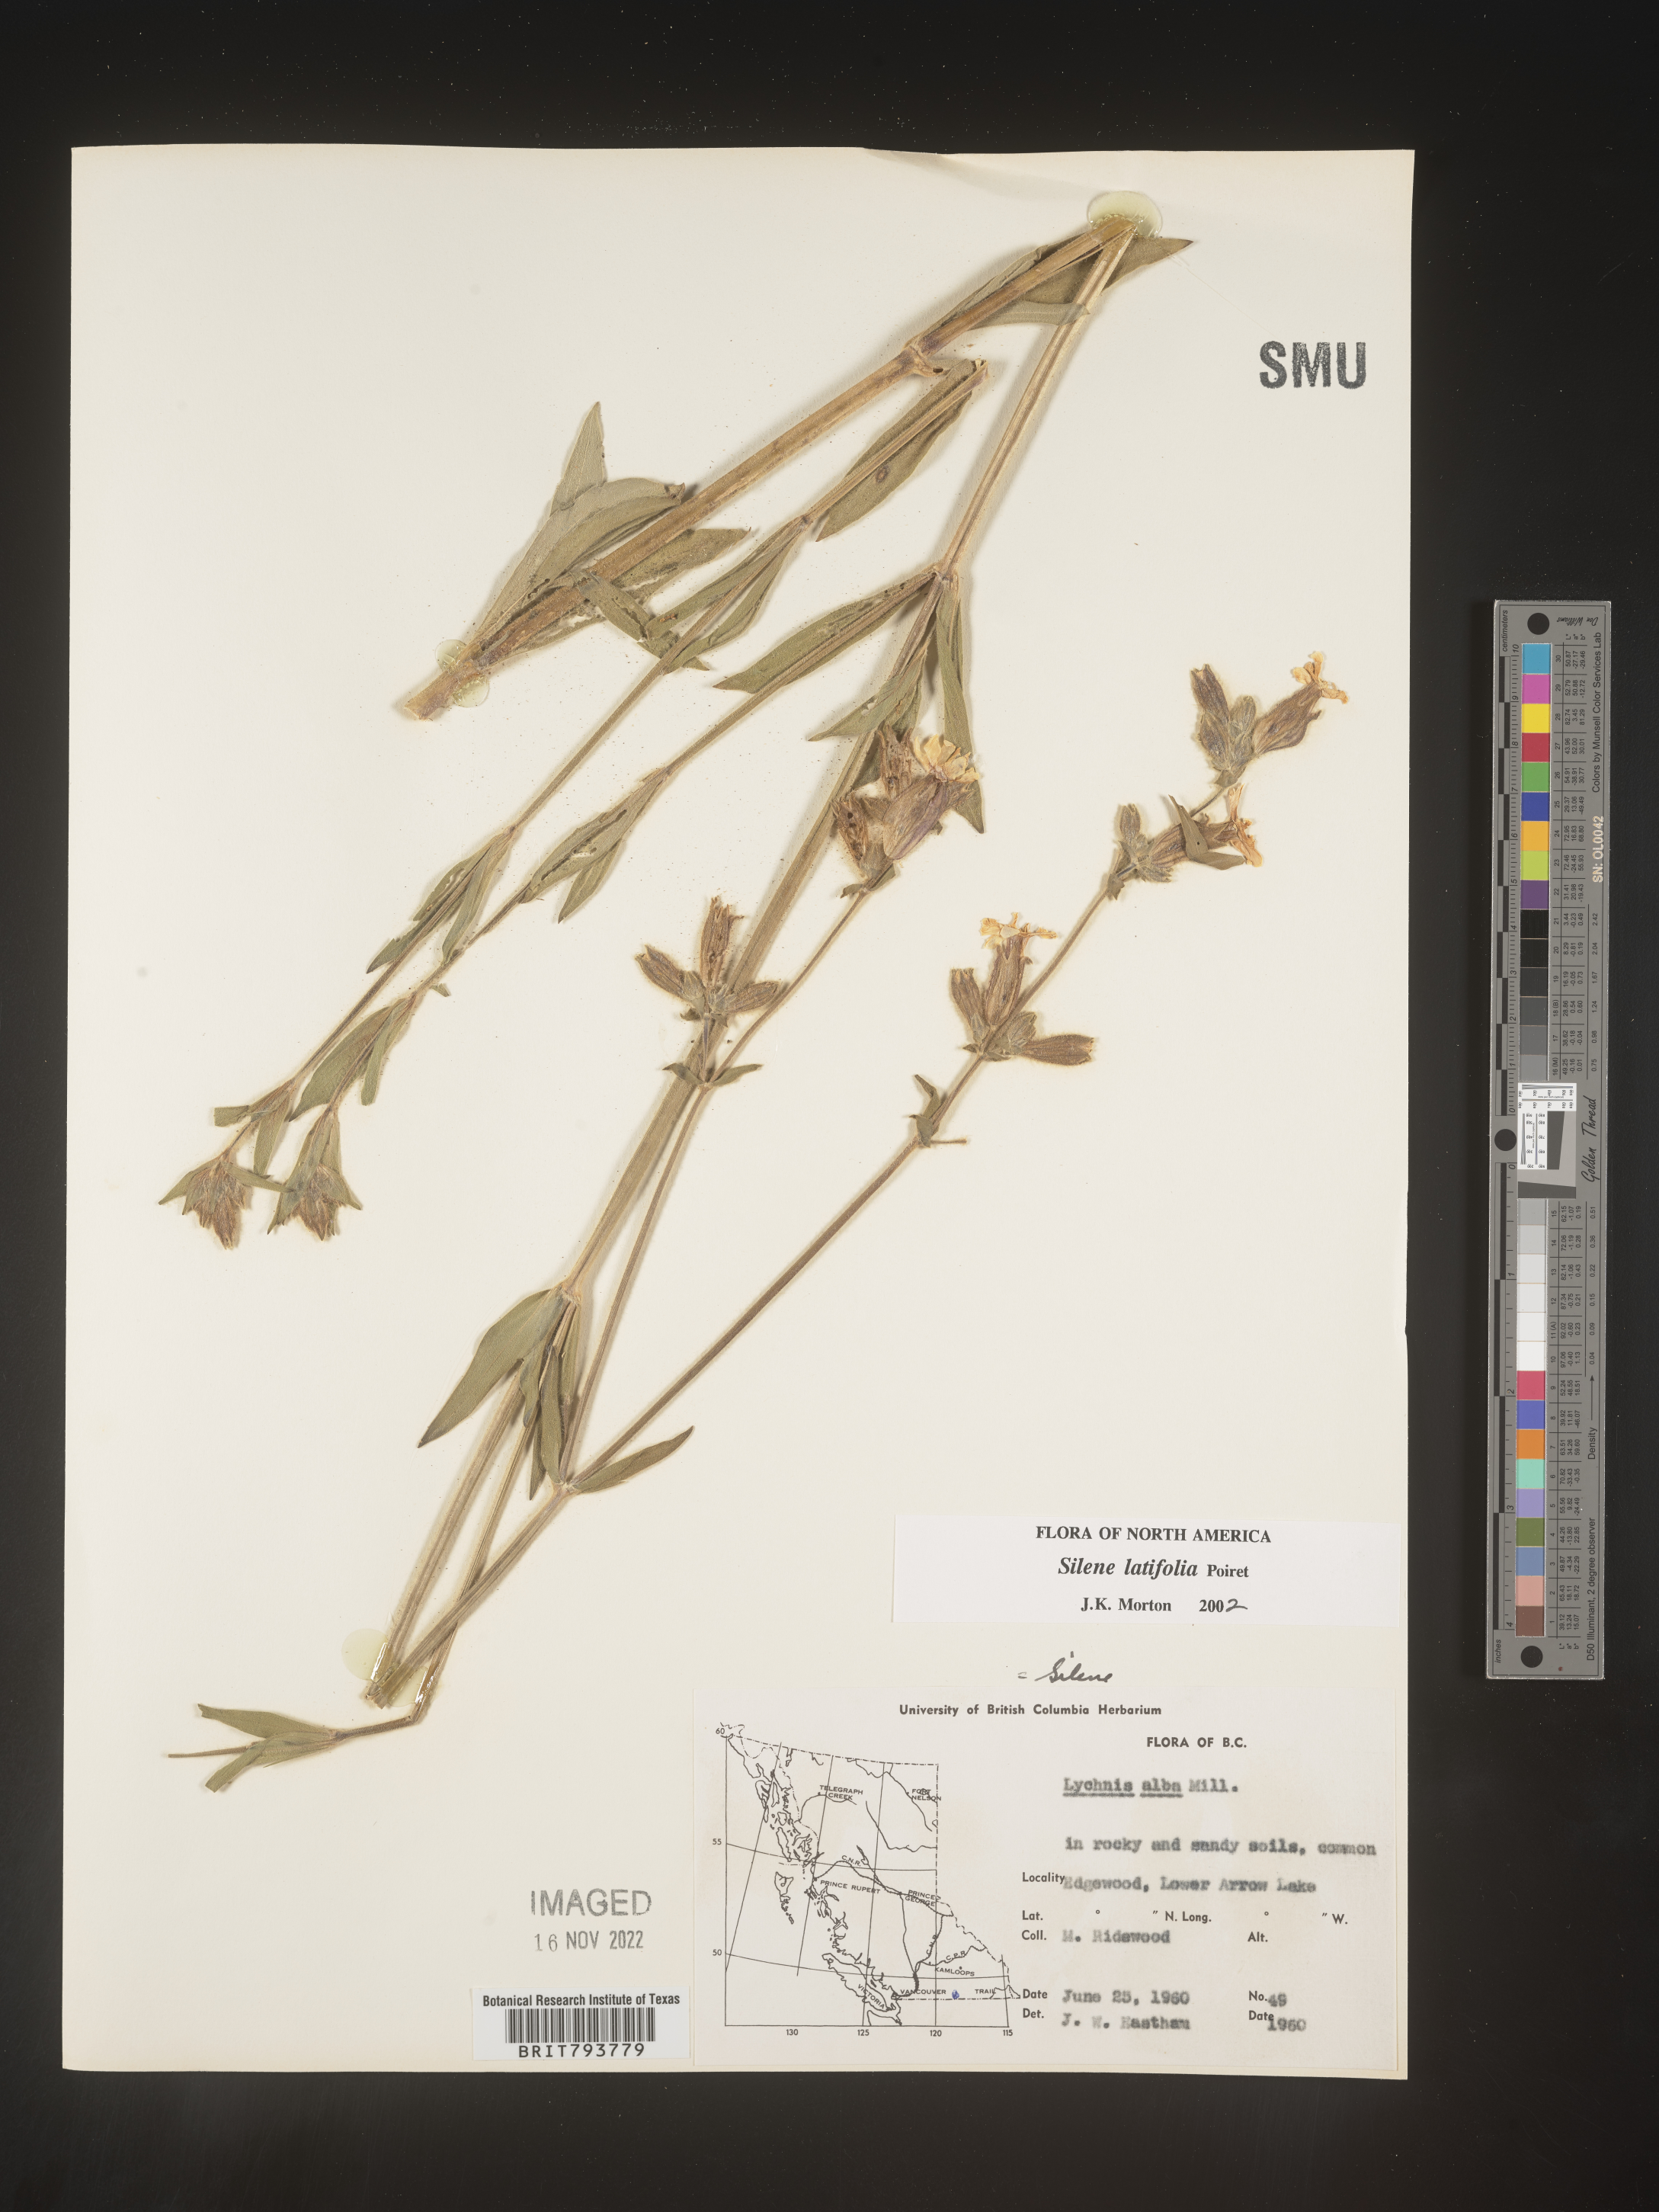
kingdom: Plantae
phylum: Tracheophyta
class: Magnoliopsida
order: Caryophyllales
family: Caryophyllaceae
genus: Silene
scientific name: Silene latifolia
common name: White campion
